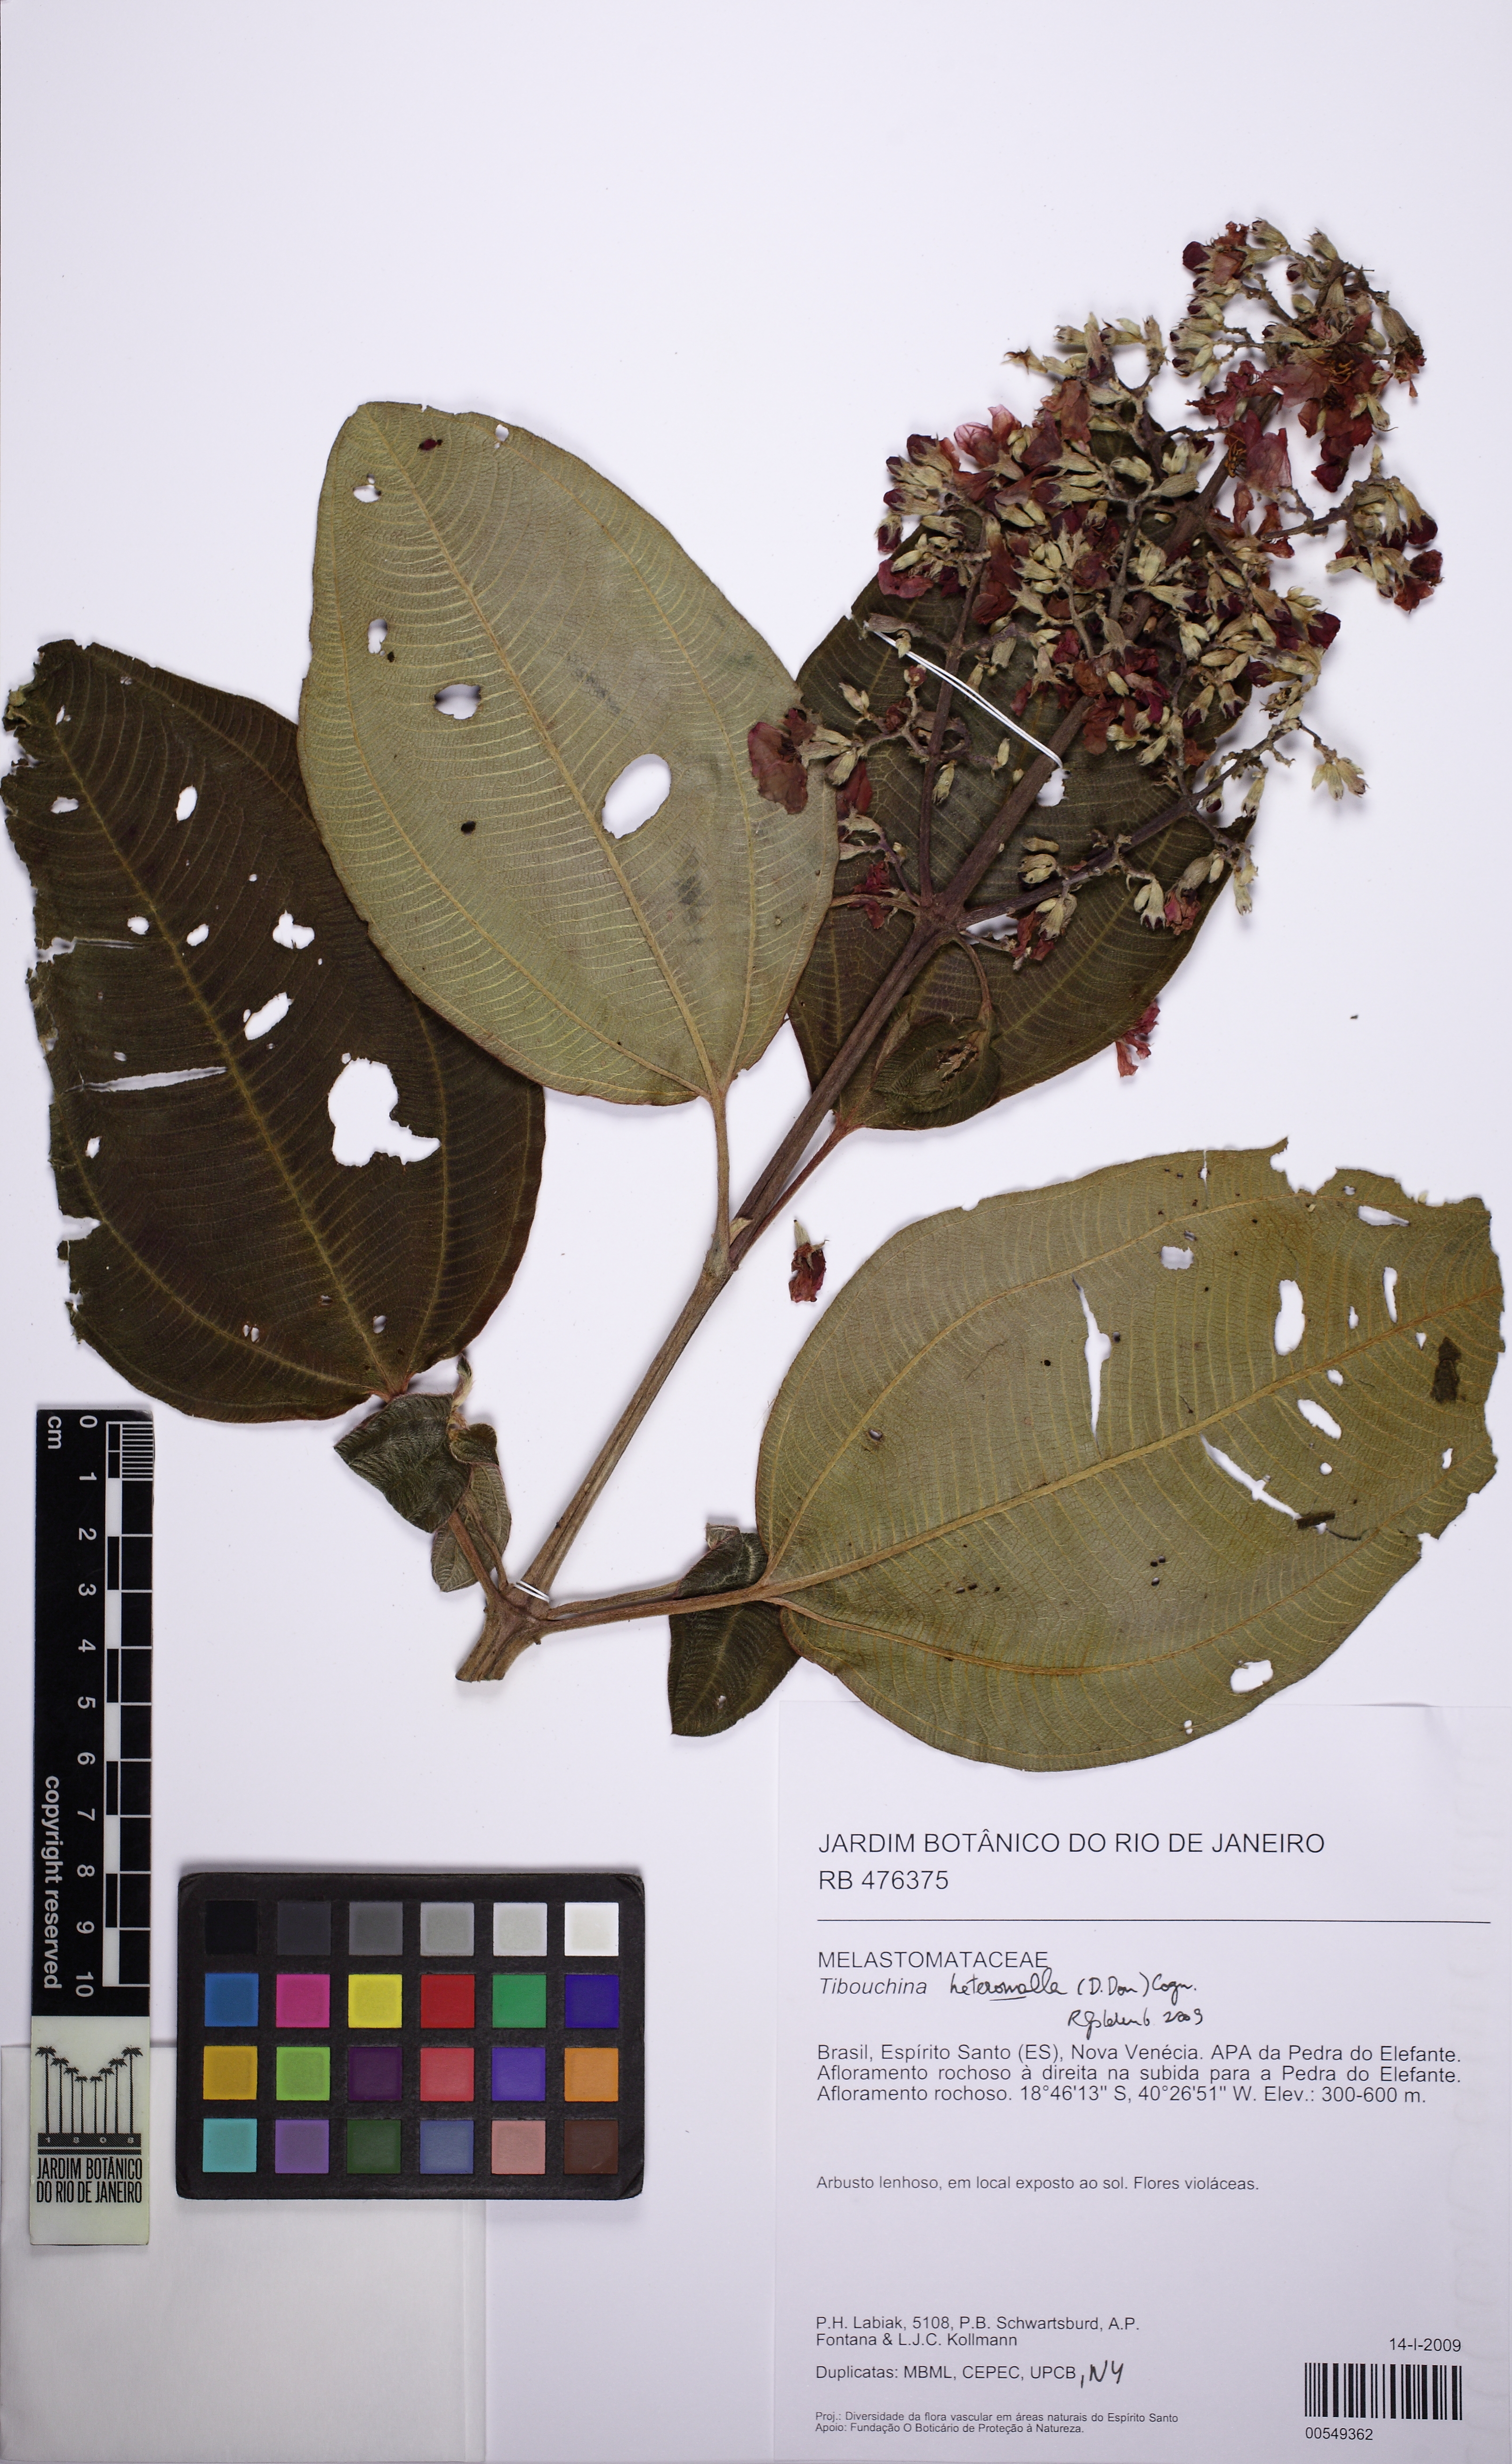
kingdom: Plantae
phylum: Tracheophyta
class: Magnoliopsida
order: Myrtales
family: Melastomataceae
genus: Pleroma
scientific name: Pleroma heteromallum
